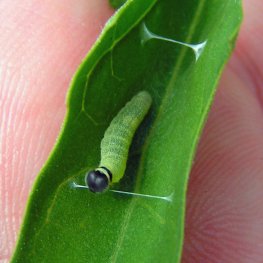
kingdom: Animalia
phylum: Arthropoda
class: Insecta
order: Lepidoptera
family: Hesperiidae
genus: Pholisora
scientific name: Pholisora catullus
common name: Common Sootywing
